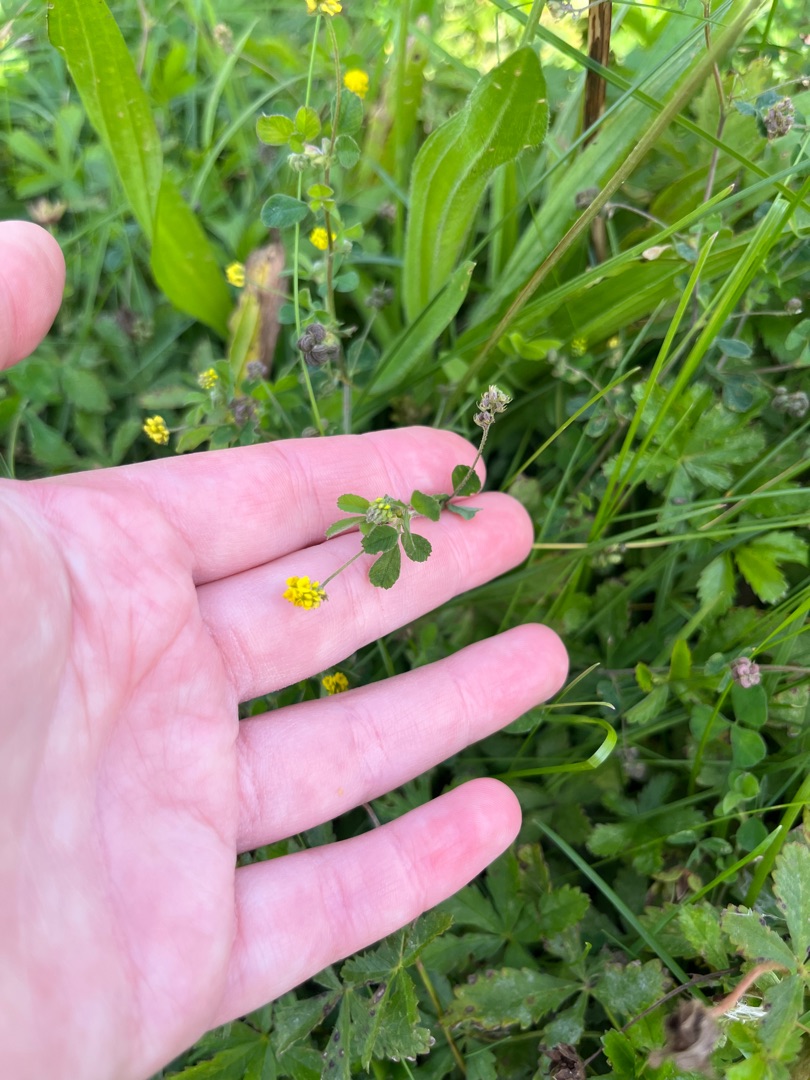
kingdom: Plantae
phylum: Tracheophyta
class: Magnoliopsida
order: Fabales
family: Fabaceae
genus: Medicago
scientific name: Medicago lupulina
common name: Humle-sneglebælg
